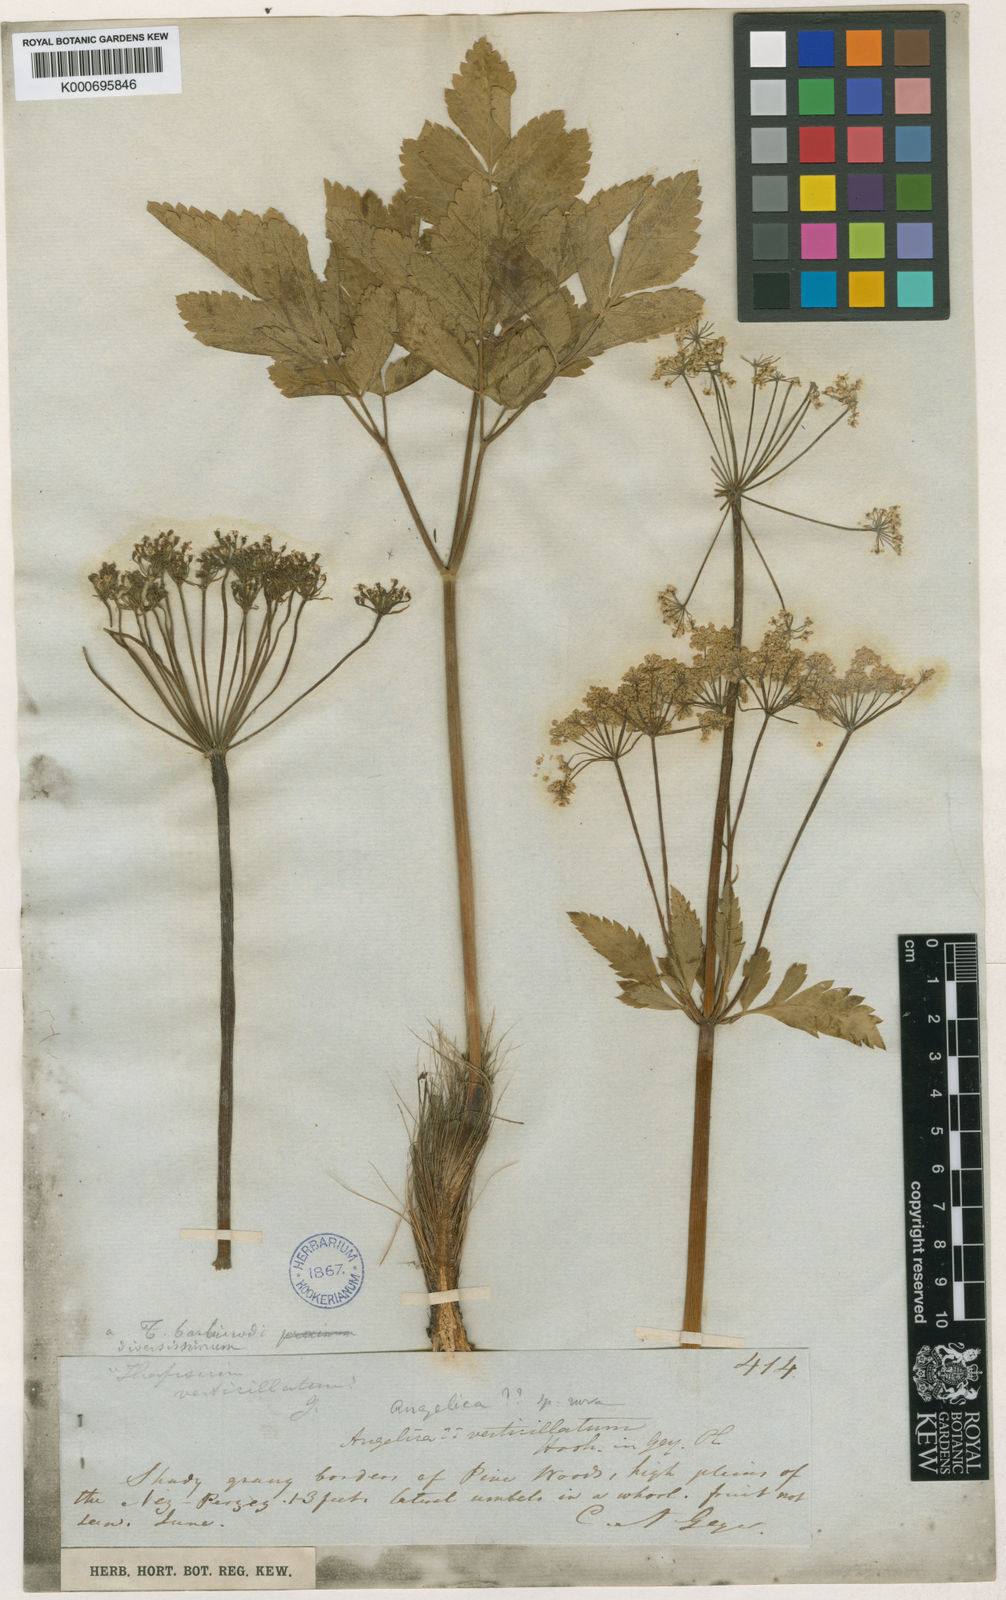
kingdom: Plantae
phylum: Tracheophyta
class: Magnoliopsida
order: Apiales
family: Apiaceae
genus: Ligusticum
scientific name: Ligusticum verticillatum
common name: Northern licorice-root
